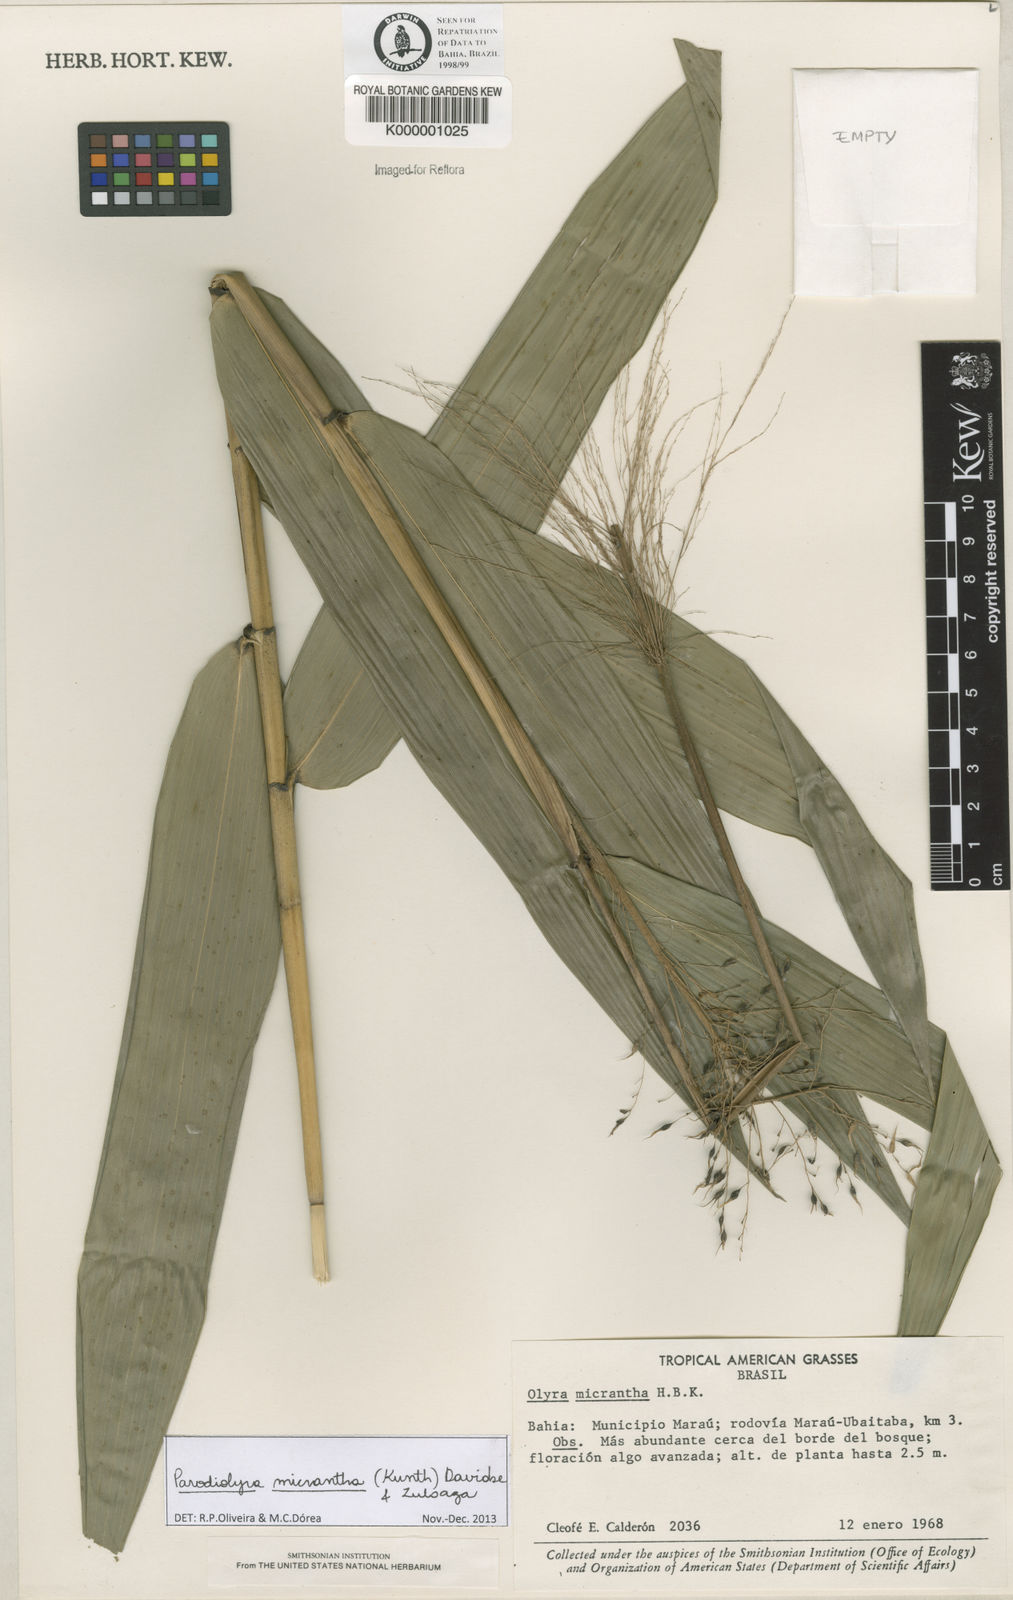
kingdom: Plantae
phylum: Tracheophyta
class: Liliopsida
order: Poales
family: Poaceae
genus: Taquara
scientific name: Taquara micrantha
